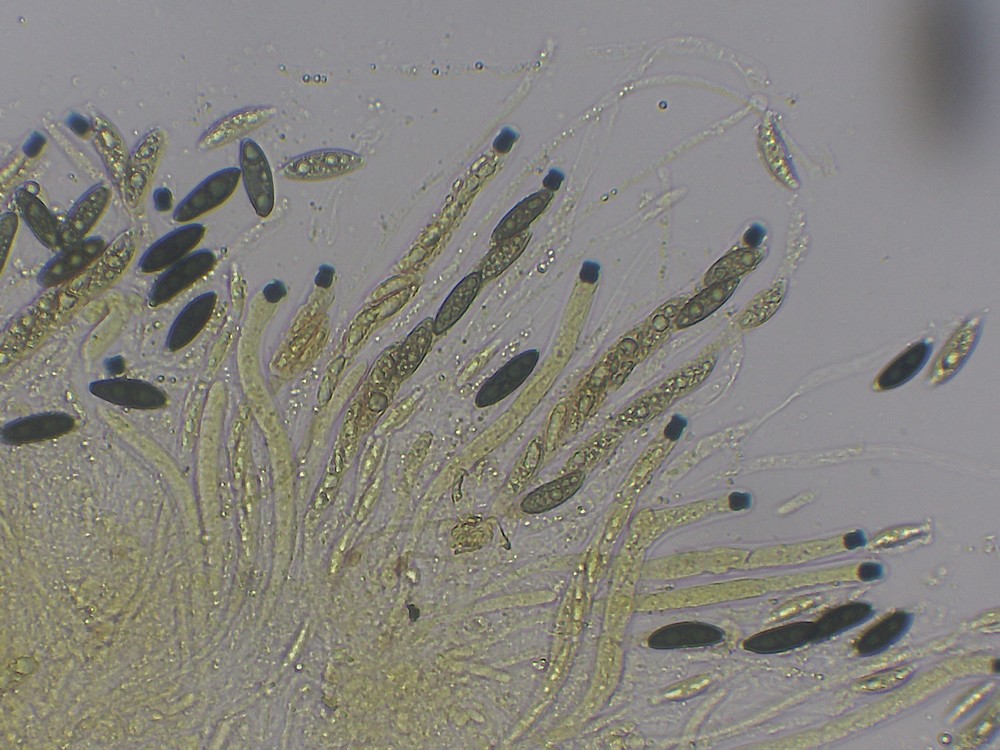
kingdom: Fungi
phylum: Ascomycota
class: Sordariomycetes
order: Xylariales
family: Xylariaceae
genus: Rosellinia
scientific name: Rosellinia aquila
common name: tykskallet kulkaviar
